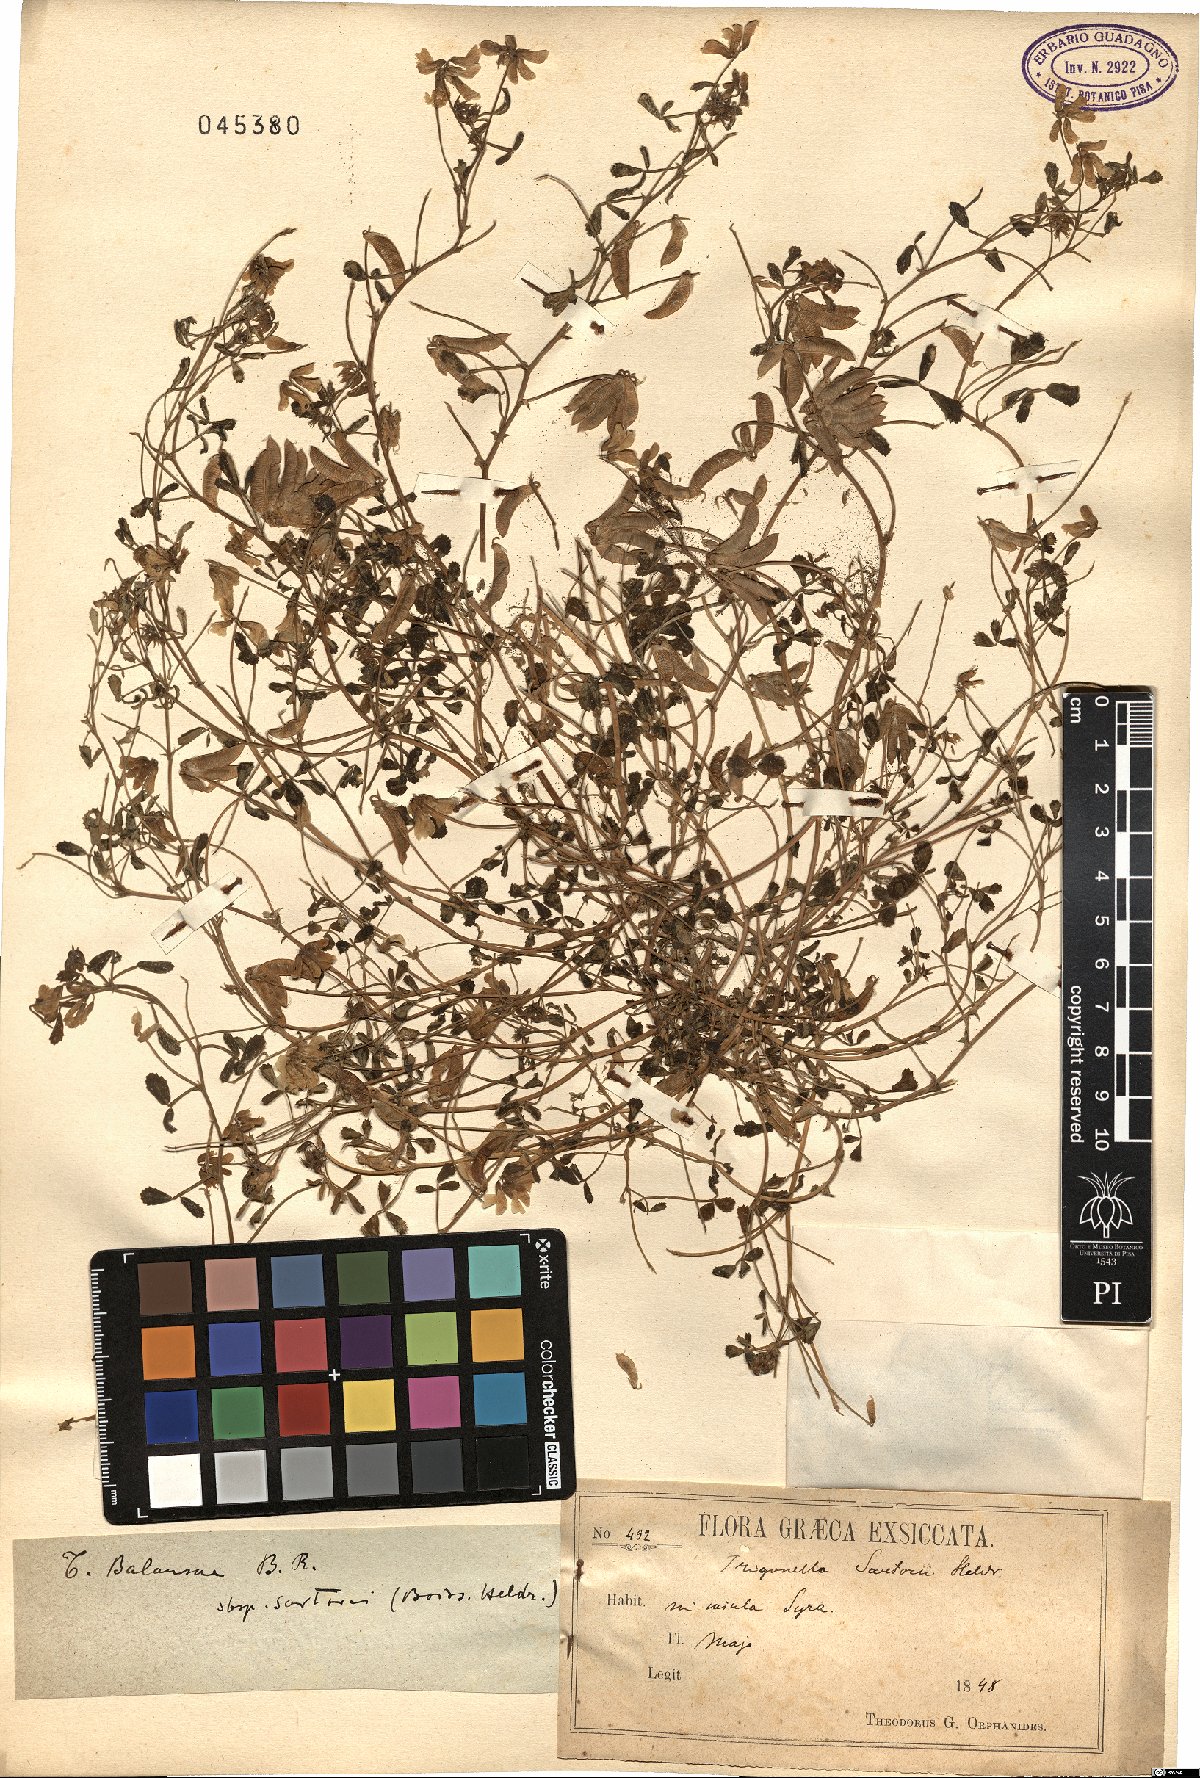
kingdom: Plantae
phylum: Tracheophyta
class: Magnoliopsida
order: Fabales
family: Fabaceae
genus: Trigonella
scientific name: Trigonella balansae
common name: Sickle-fruited fenugreek
